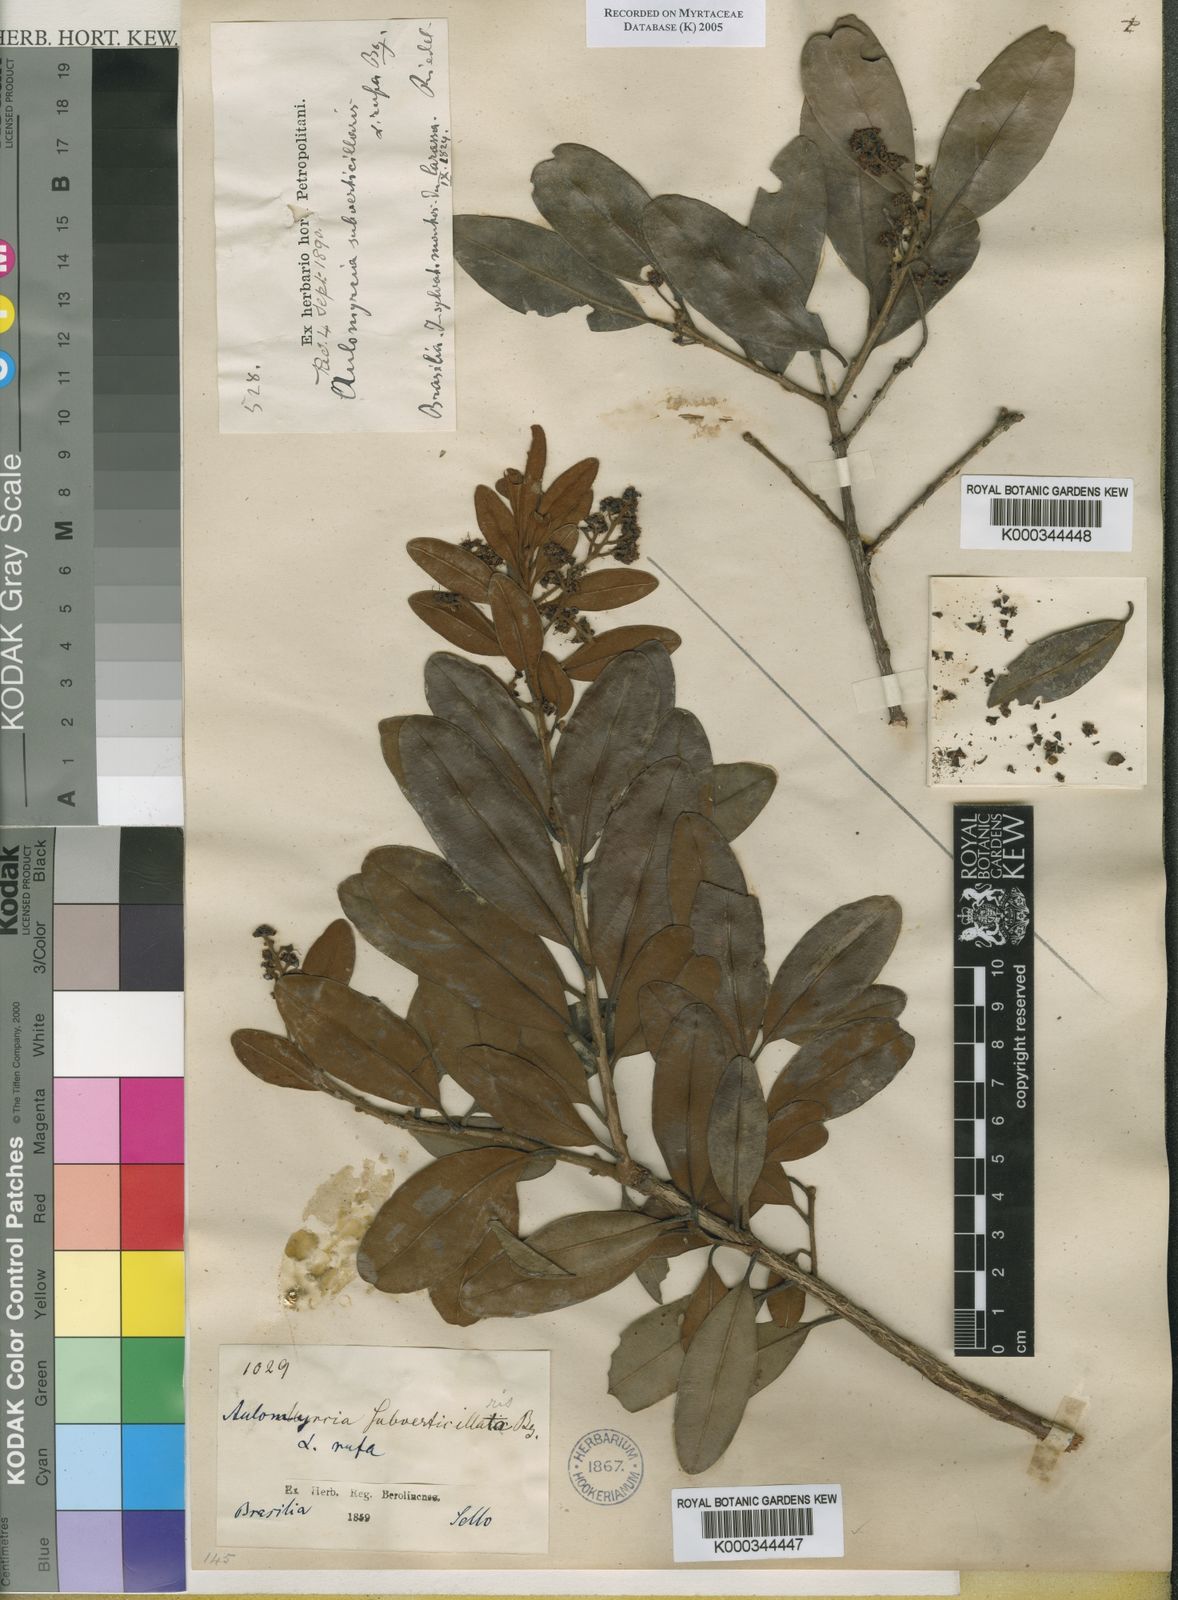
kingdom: Plantae
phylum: Tracheophyta
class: Magnoliopsida
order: Myrtales
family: Myrtaceae
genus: Myrcia
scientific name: Myrcia
